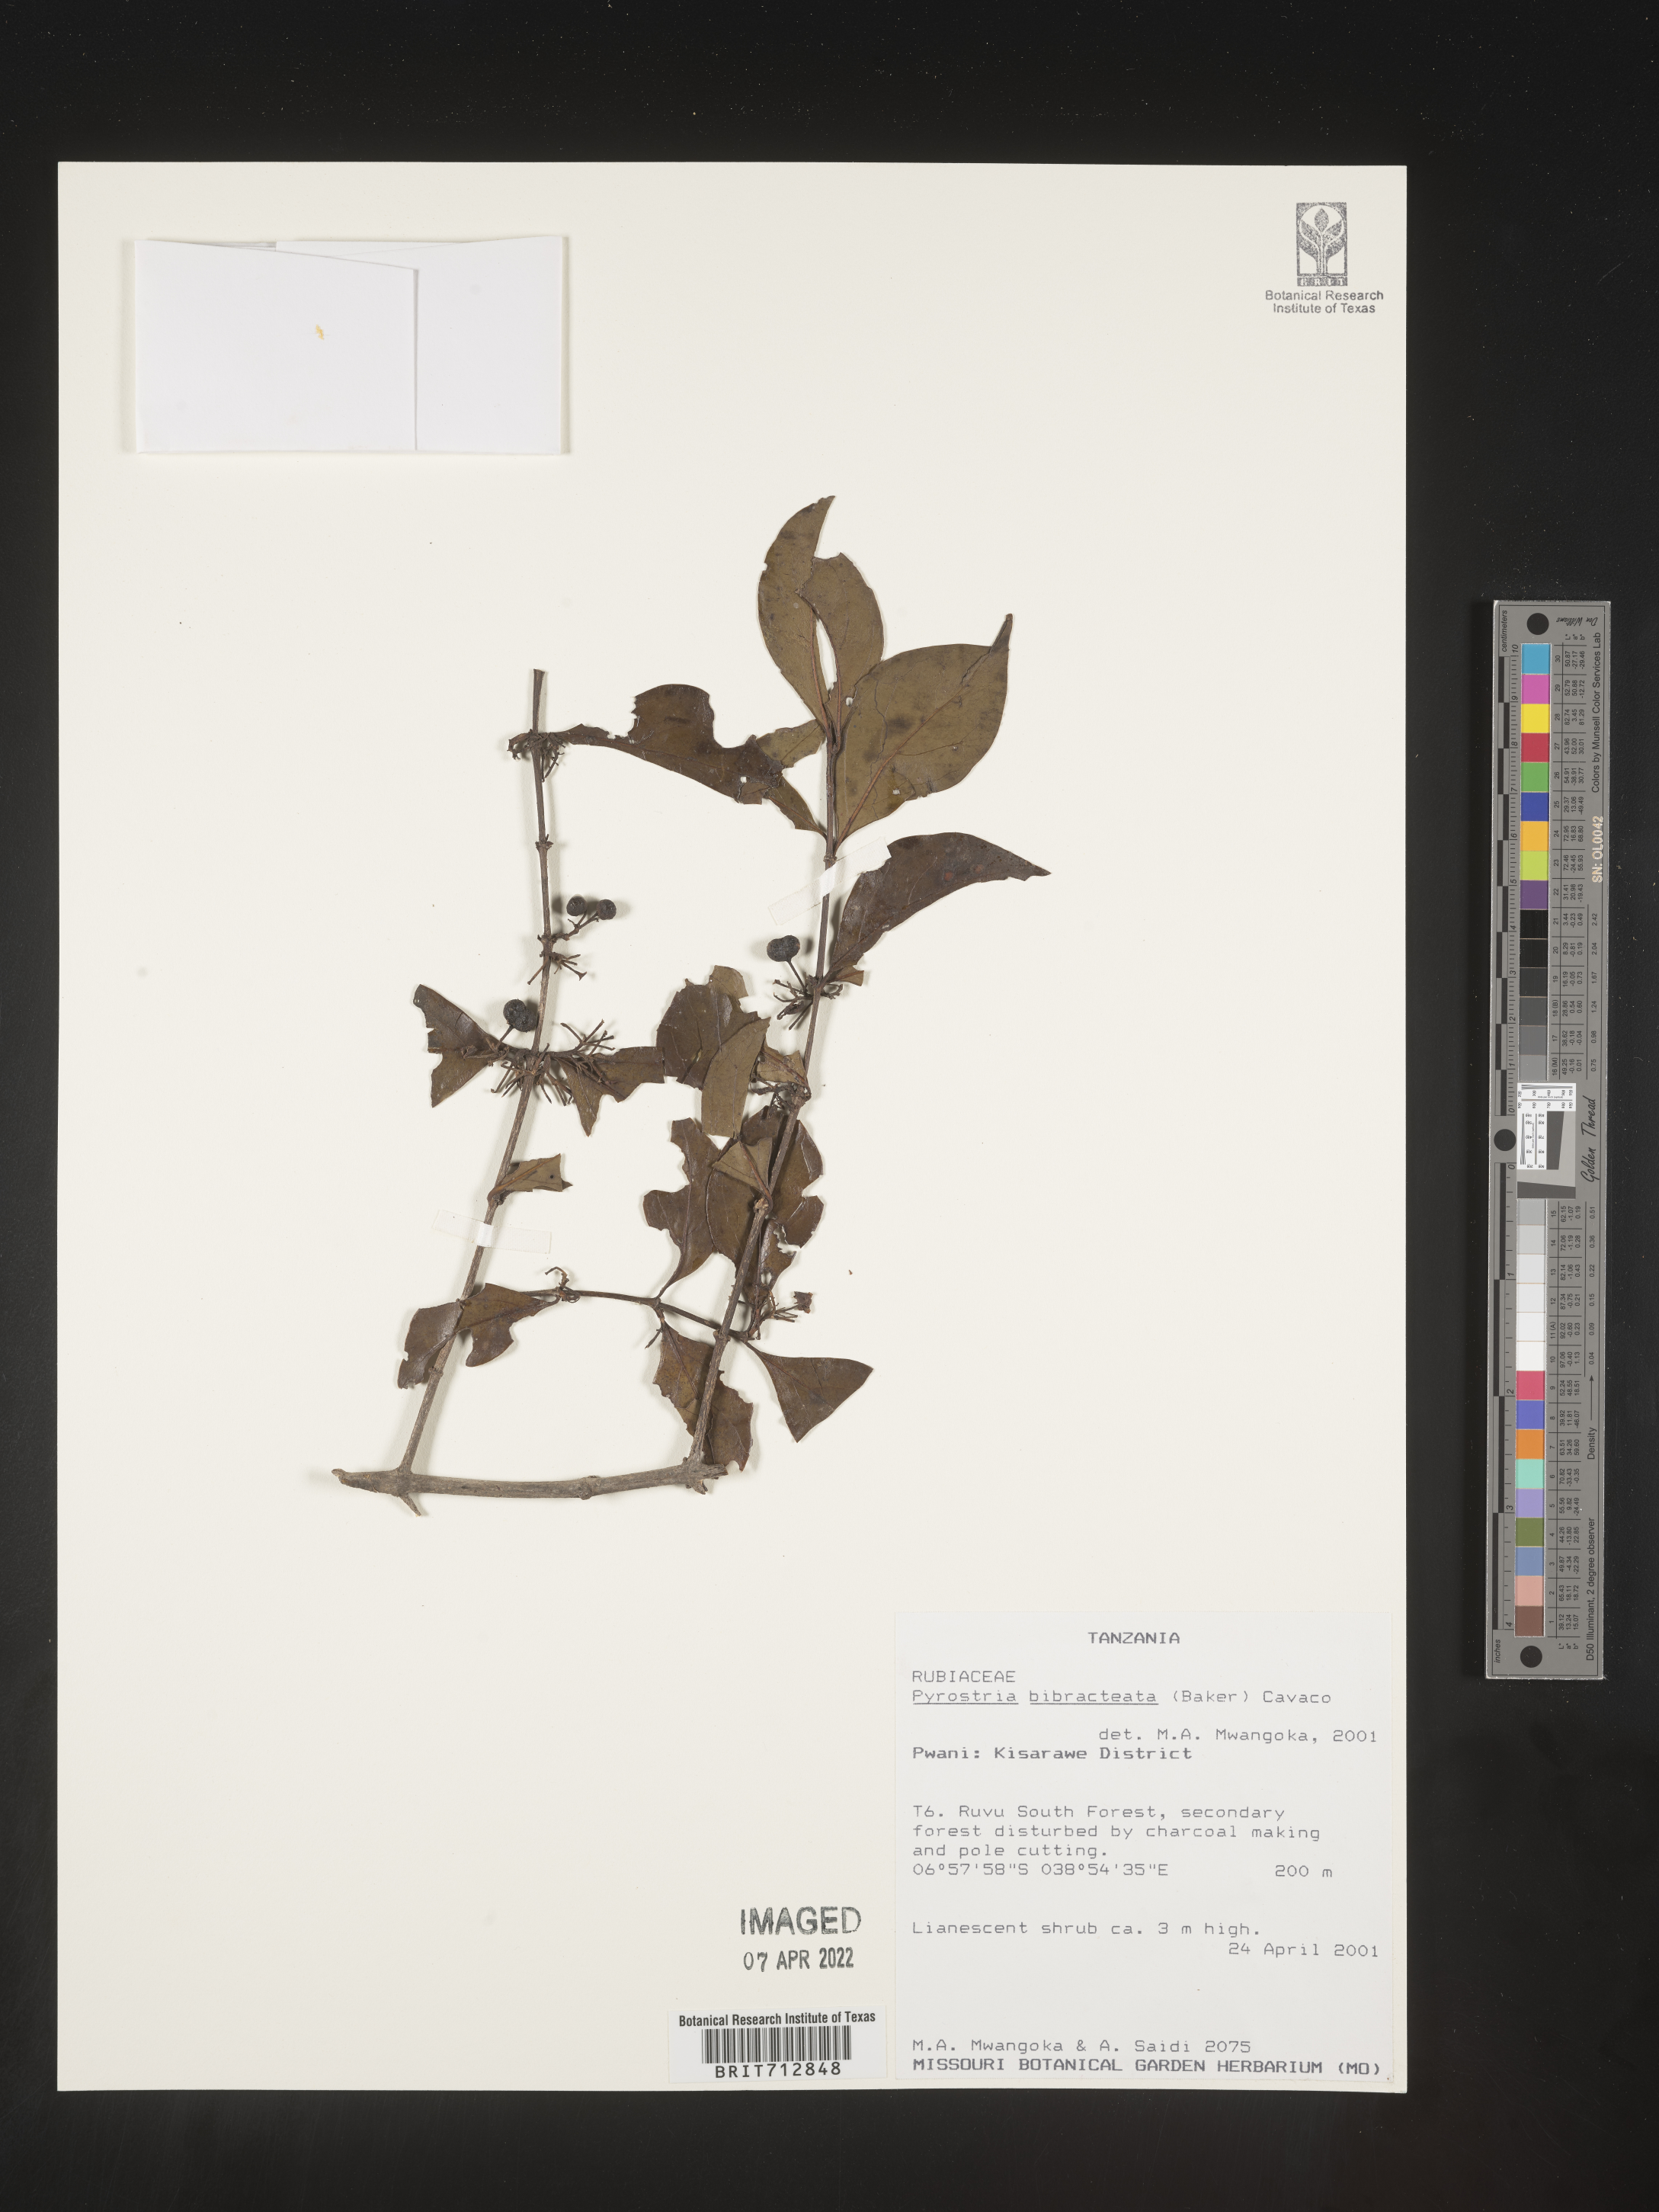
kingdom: Plantae
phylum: Tracheophyta
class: Magnoliopsida
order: Gentianales
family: Rubiaceae
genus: Pyrostria
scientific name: Pyrostria
